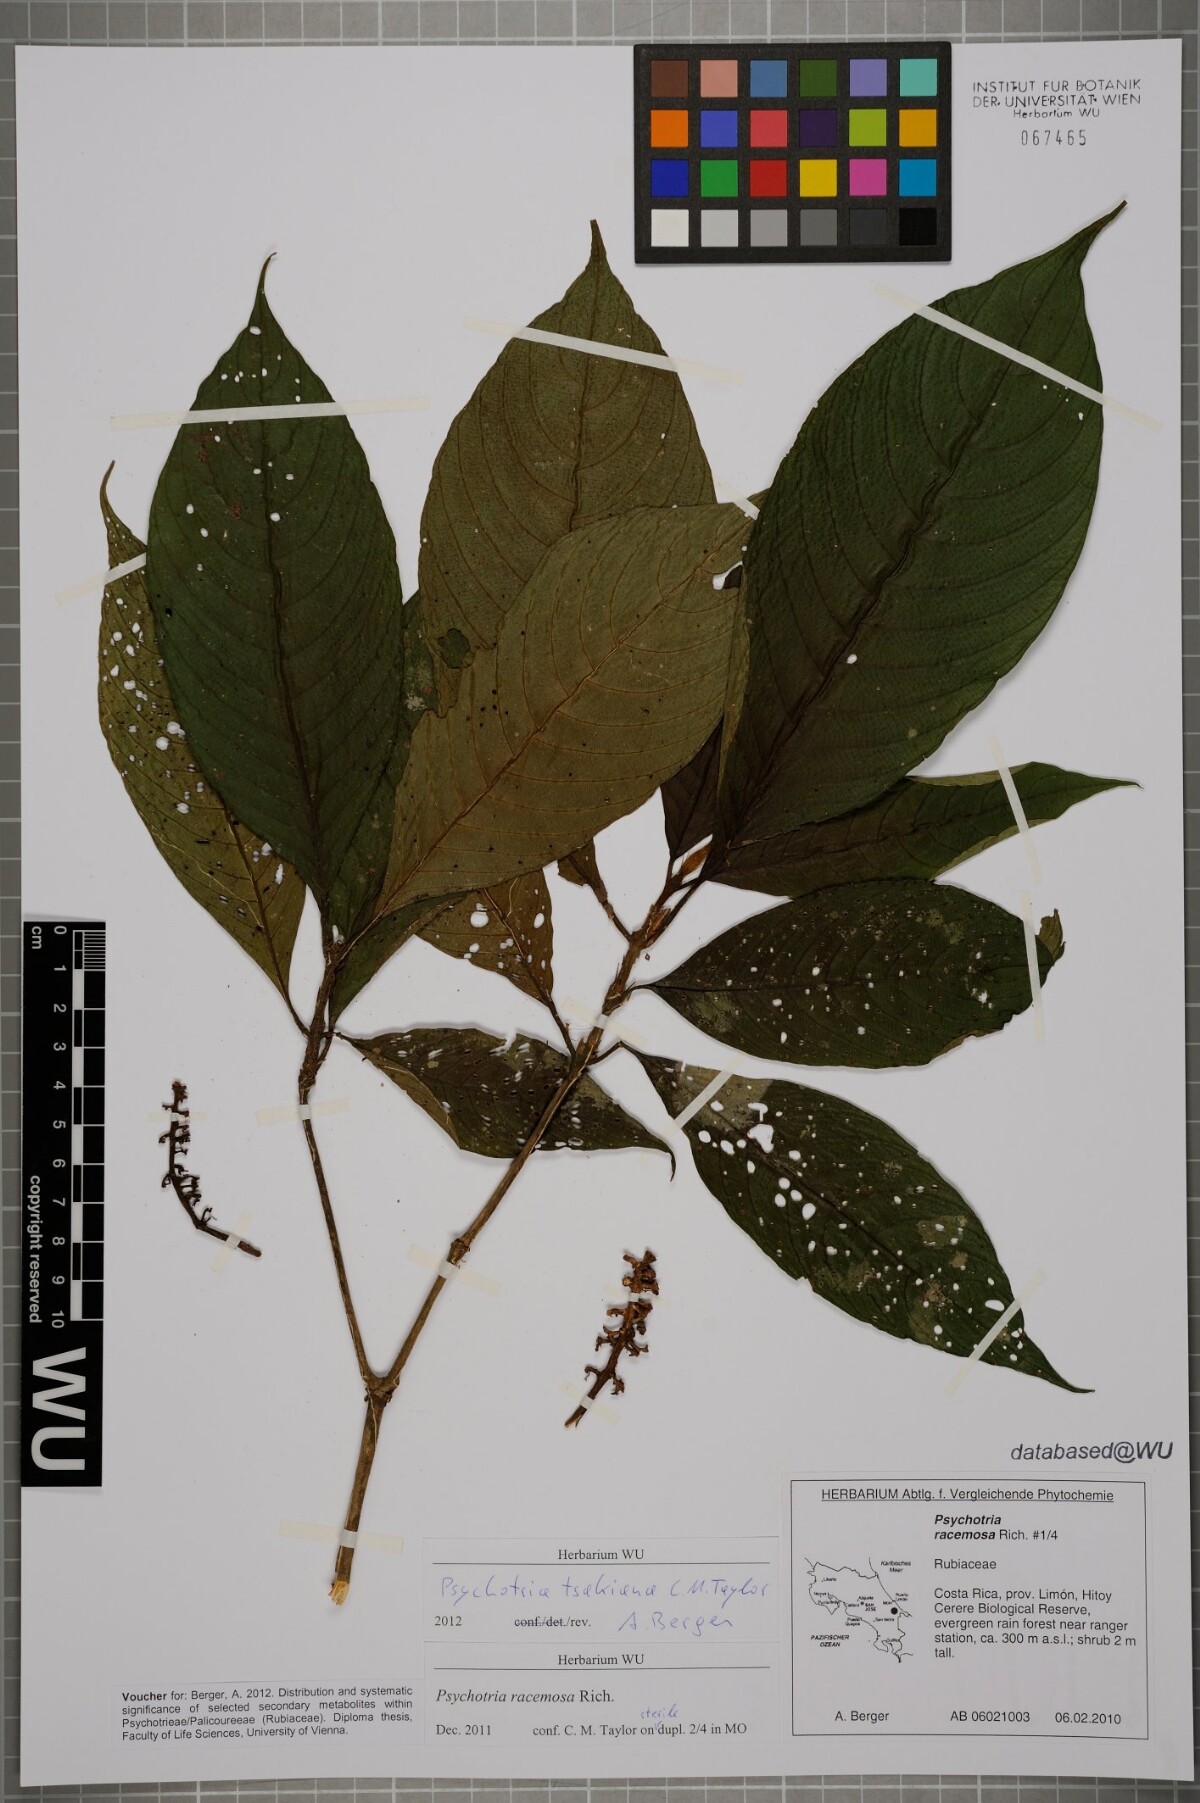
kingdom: Plantae
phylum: Tracheophyta
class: Magnoliopsida
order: Gentianales
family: Rubiaceae
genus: Palicourea
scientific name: Palicourea tsakiana
